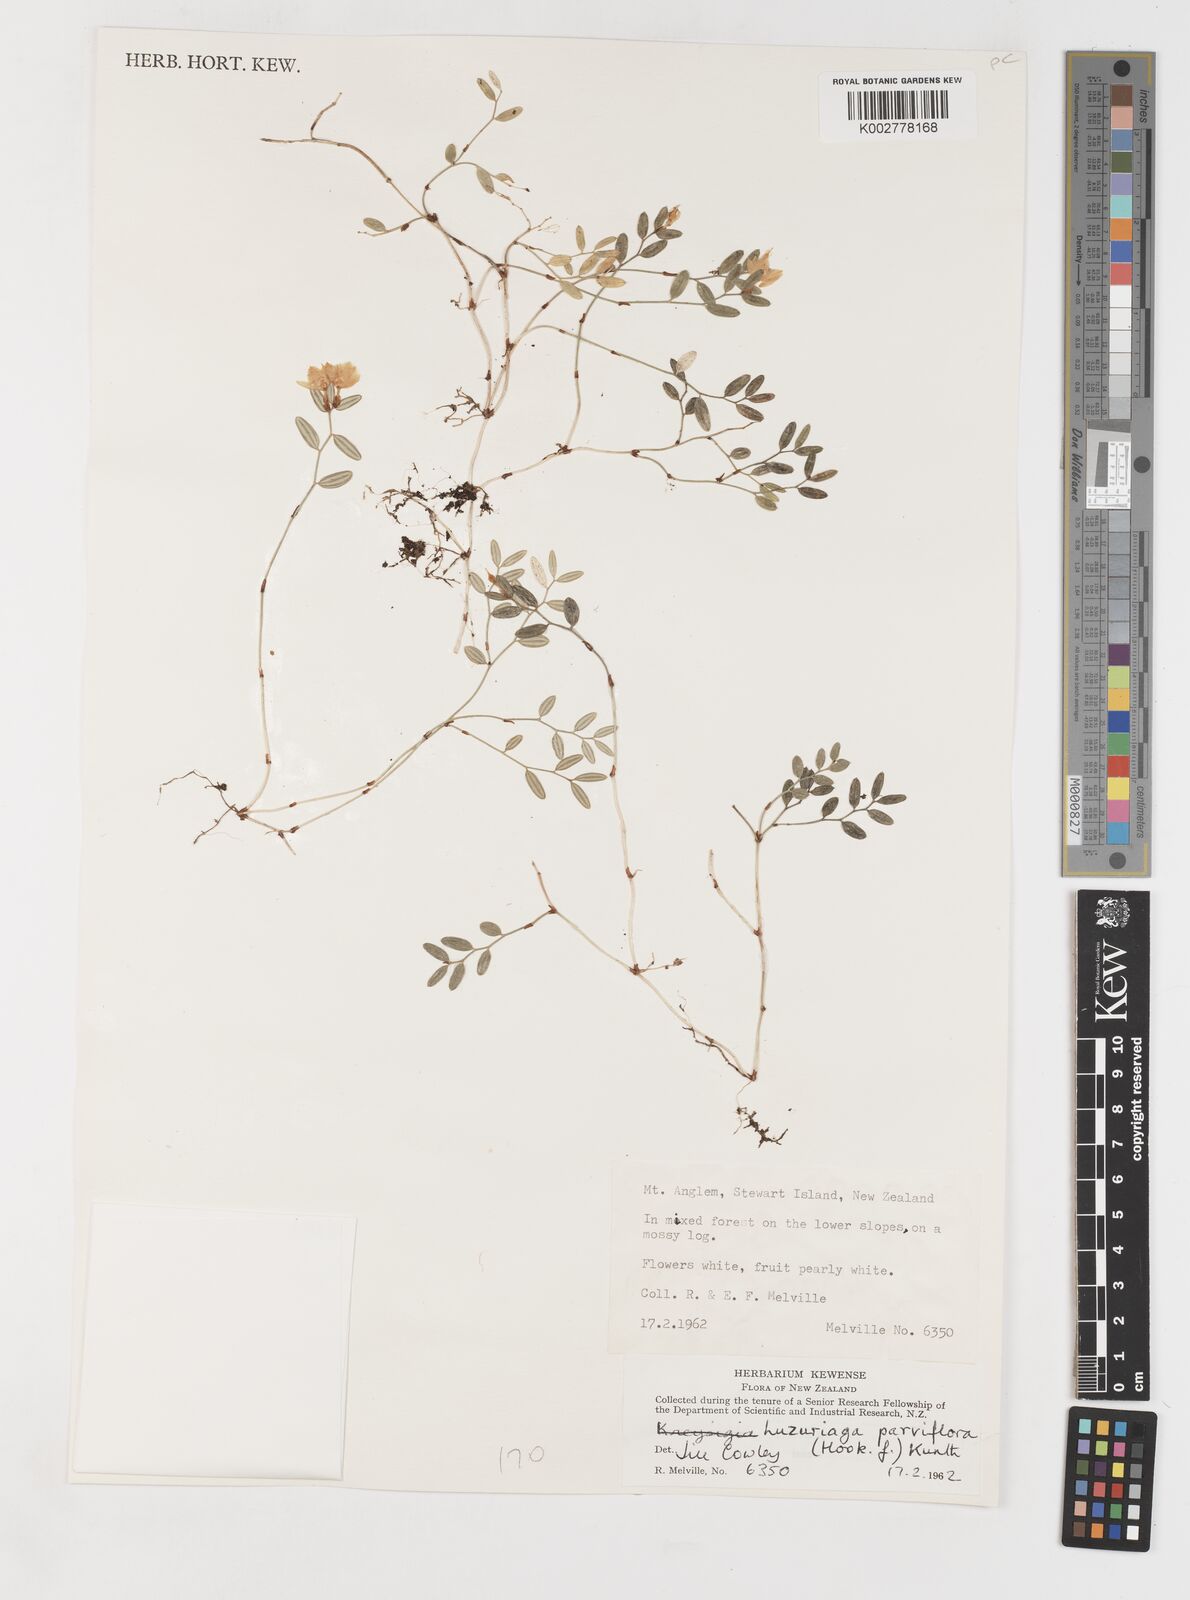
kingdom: Plantae
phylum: Tracheophyta
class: Liliopsida
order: Liliales
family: Alstroemeriaceae
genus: Luzuriaga
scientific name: Luzuriaga parviflora
